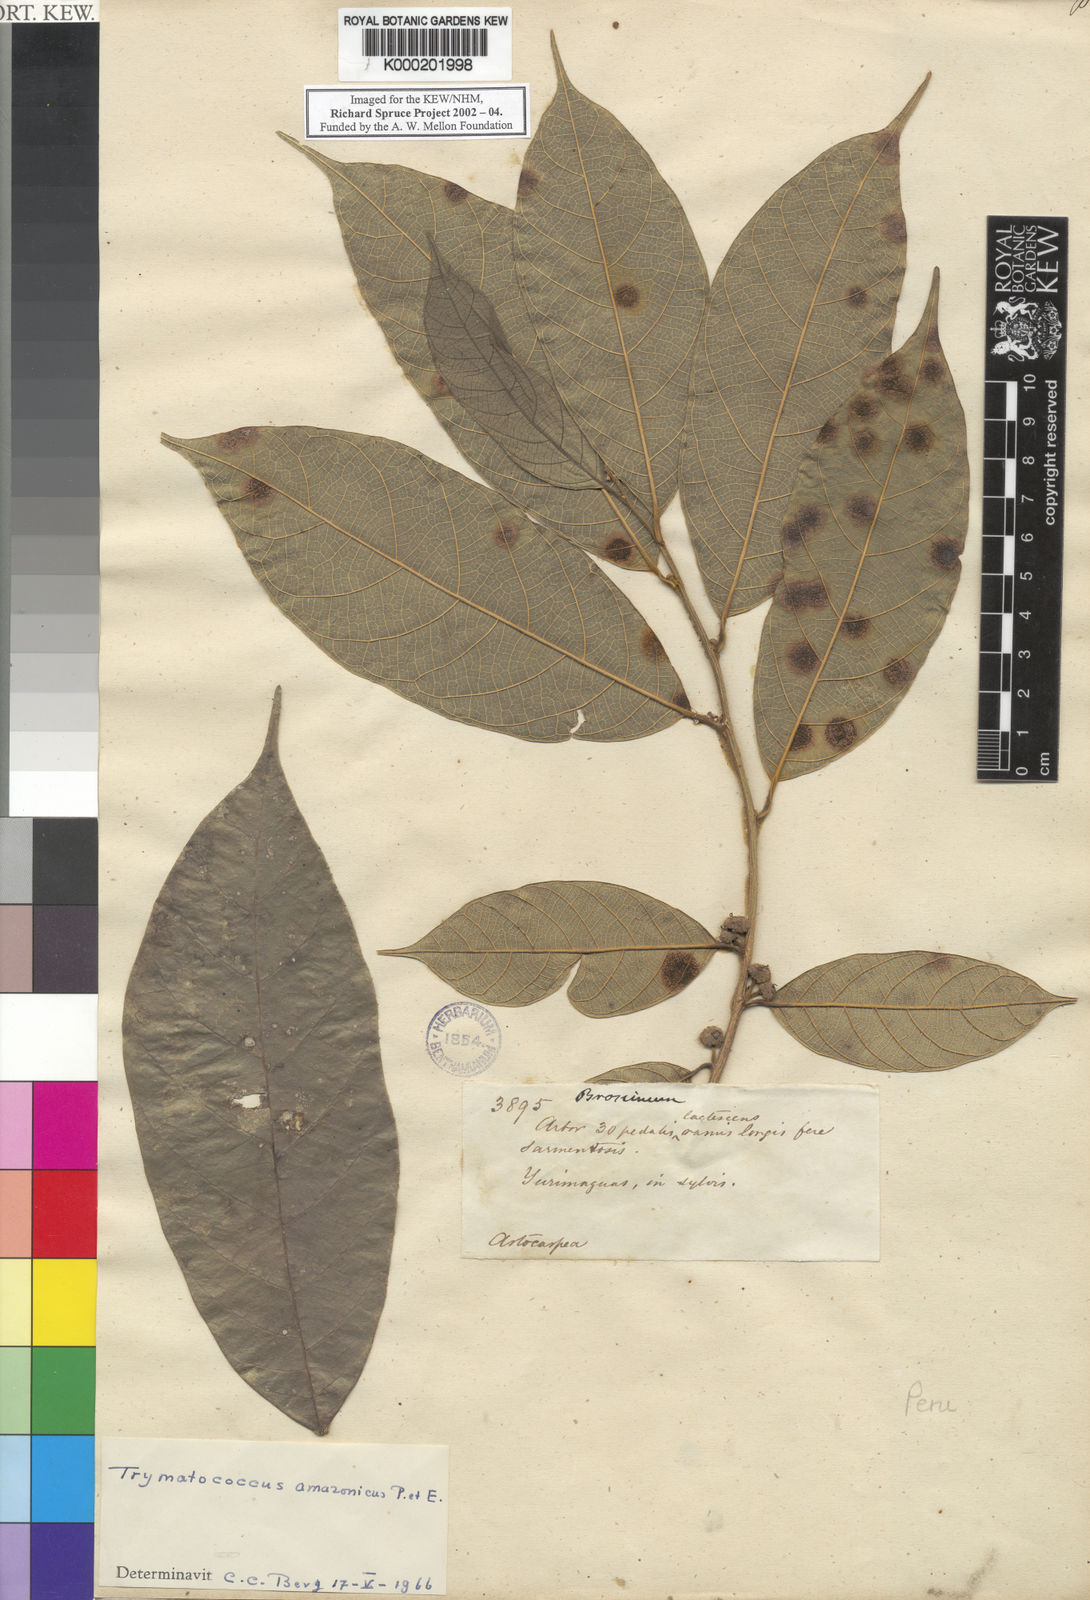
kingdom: Plantae
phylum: Tracheophyta
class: Magnoliopsida
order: Rosales
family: Moraceae
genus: Brosimum
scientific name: Brosimum amazonicum
